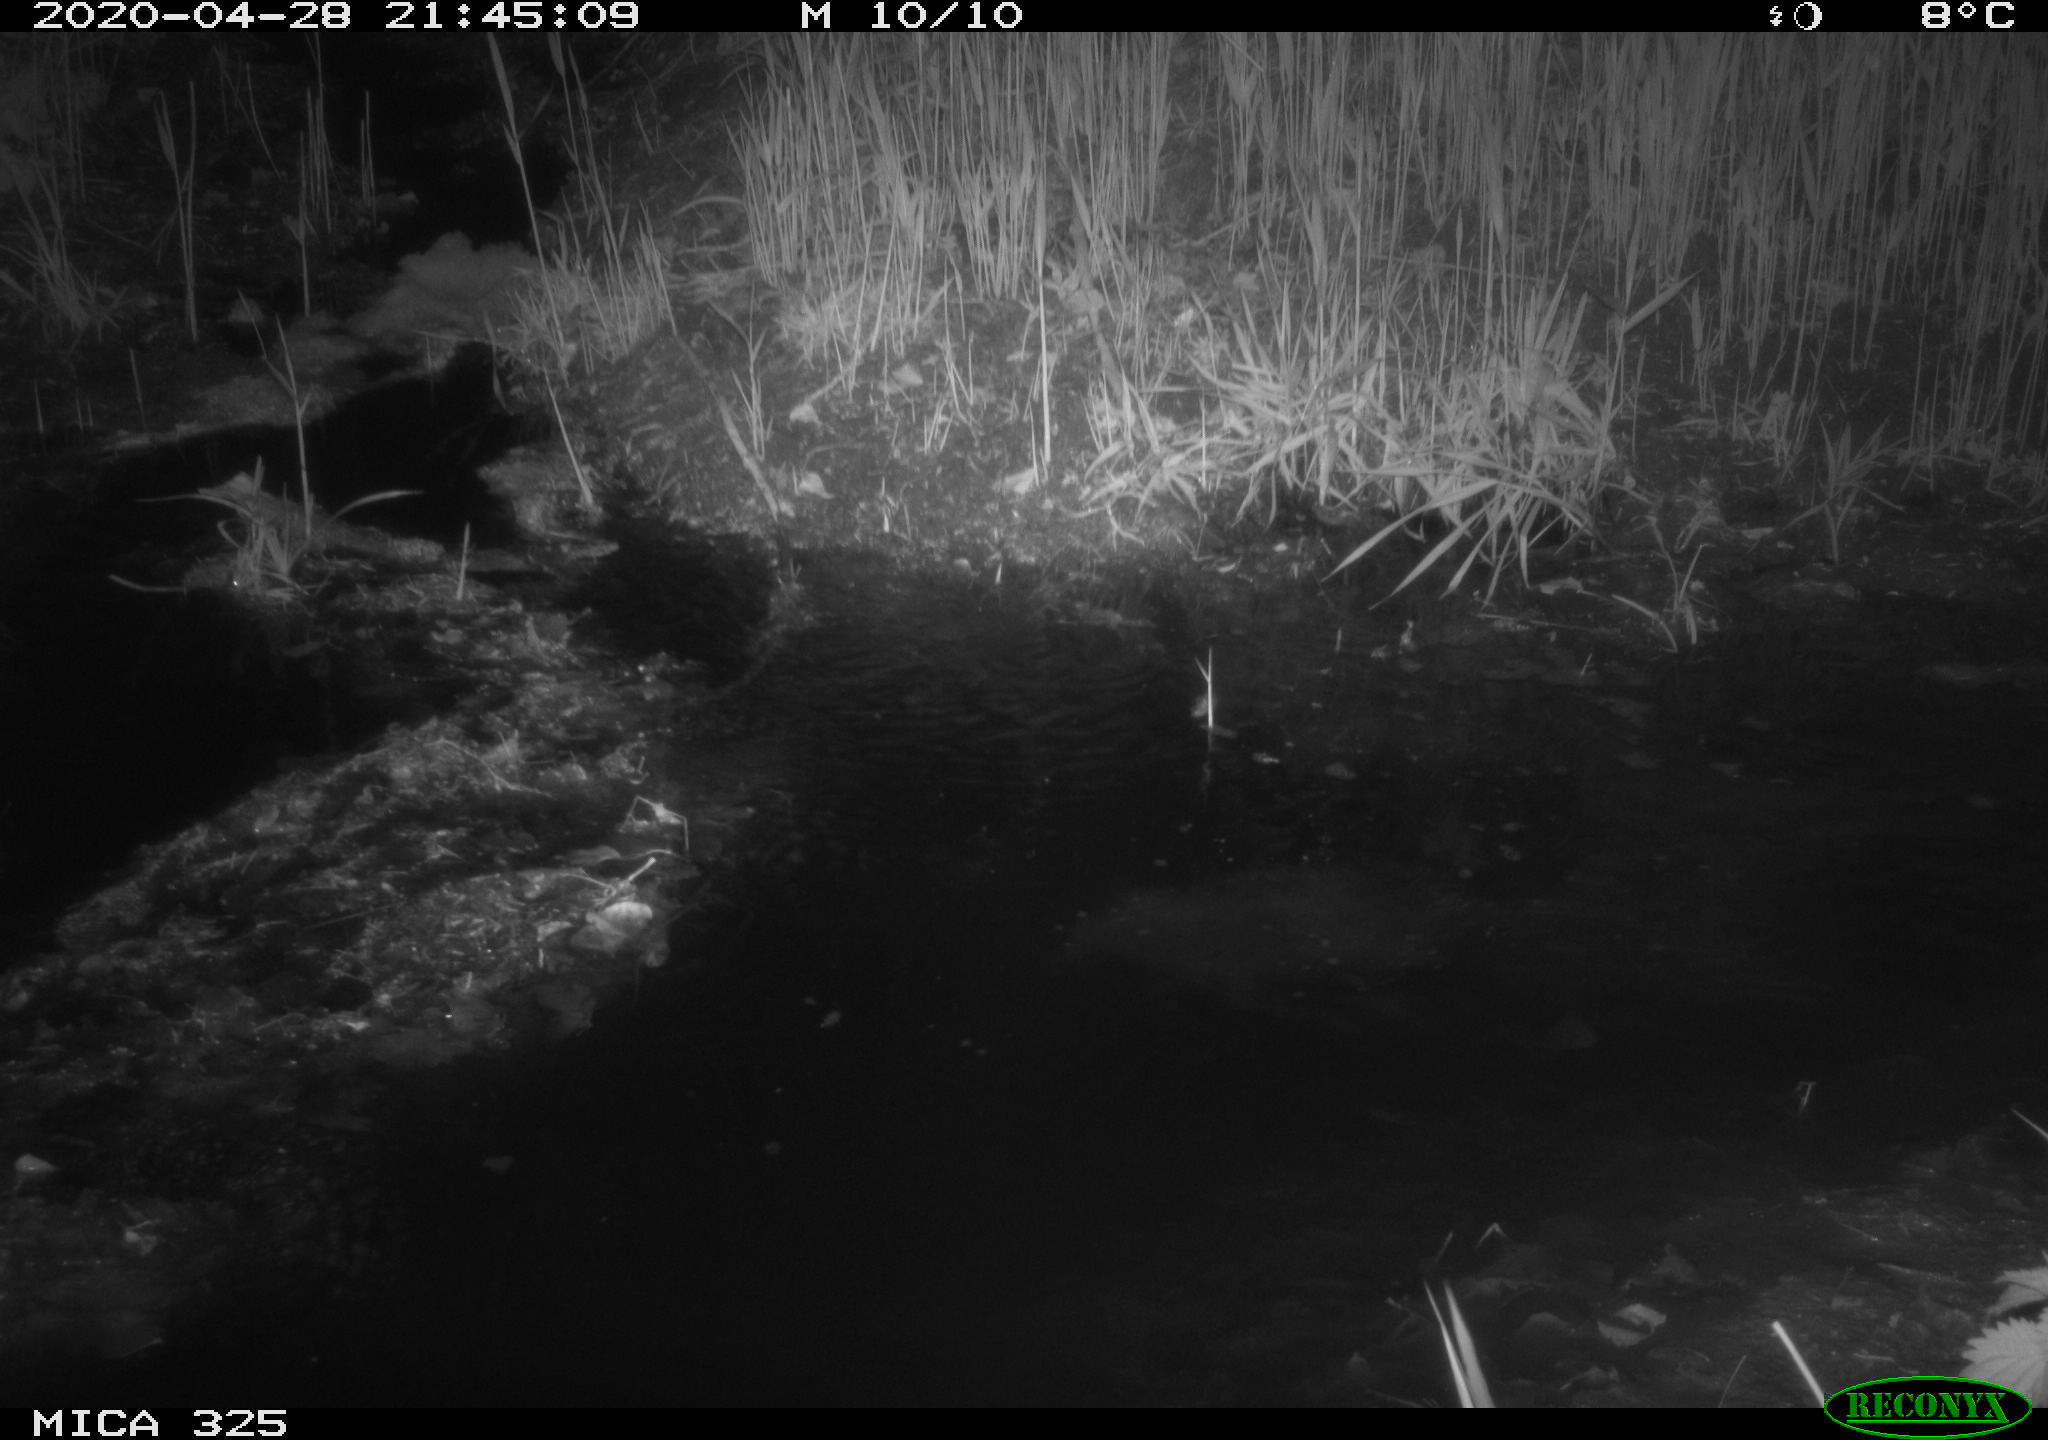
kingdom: Animalia
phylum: Chordata
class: Mammalia
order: Rodentia
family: Myocastoridae
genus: Myocastor
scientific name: Myocastor coypus
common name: Coypu
